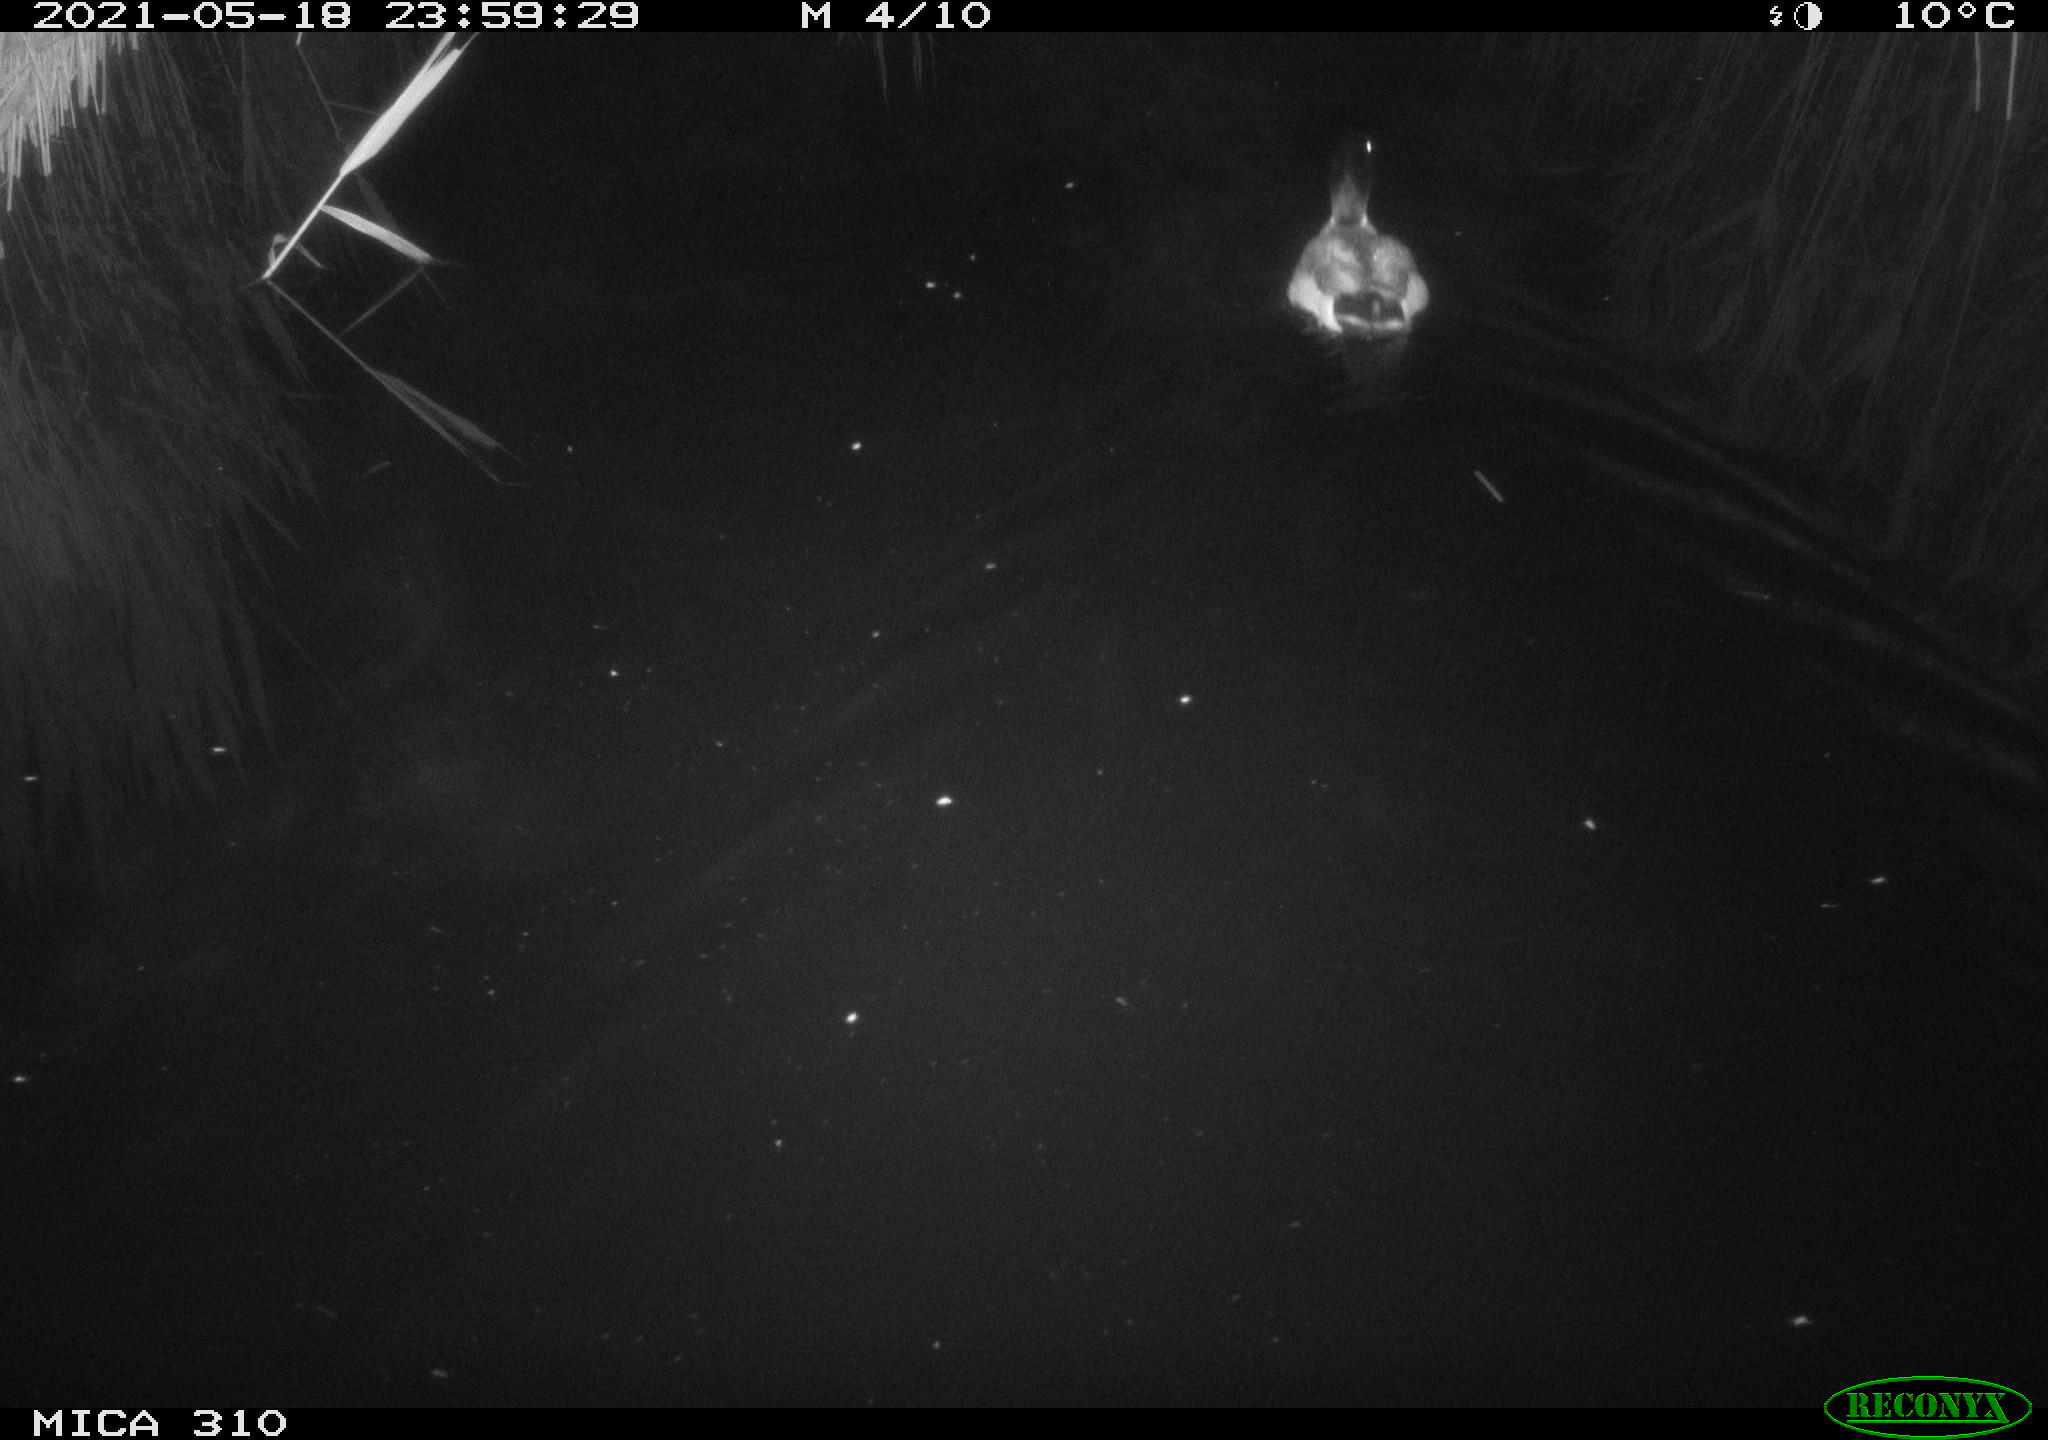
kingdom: Animalia
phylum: Chordata
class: Aves
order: Anseriformes
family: Anatidae
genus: Anas
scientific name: Anas platyrhynchos
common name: Mallard
